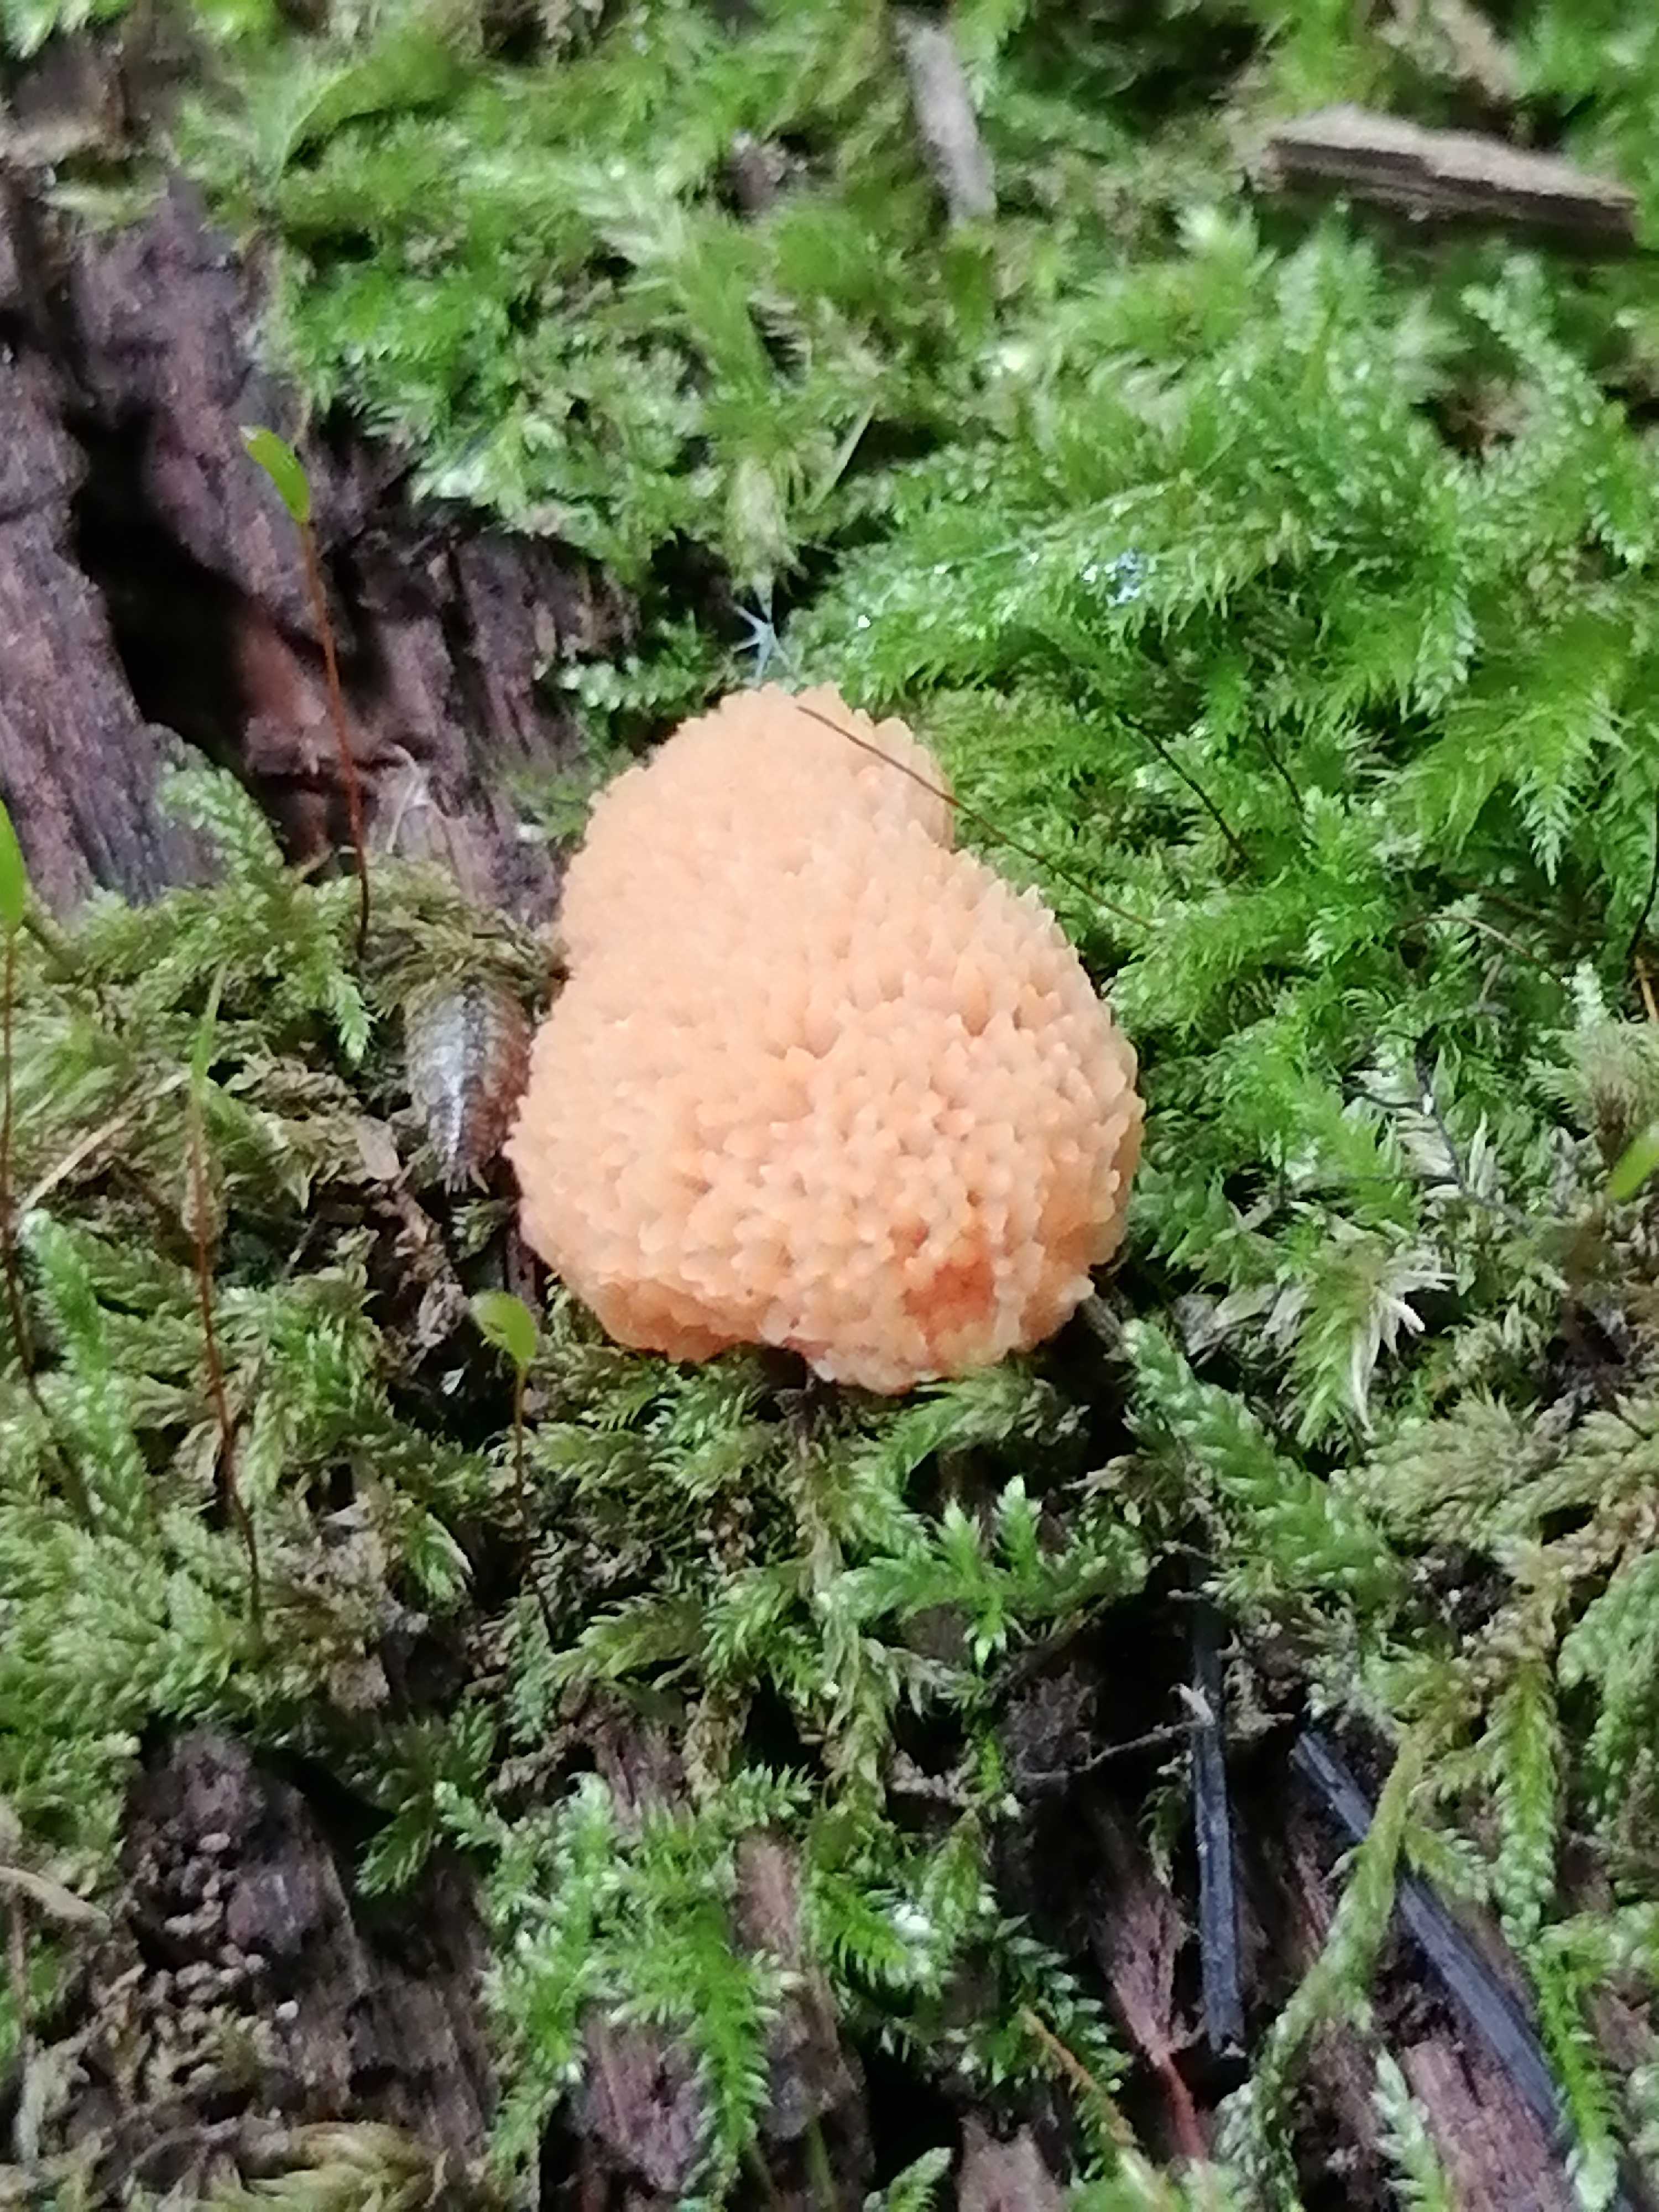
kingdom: Protozoa
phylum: Mycetozoa
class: Myxomycetes
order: Cribrariales
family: Tubiferaceae
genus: Tubifera
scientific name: Tubifera ferruginosa
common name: kanel-støvrør
